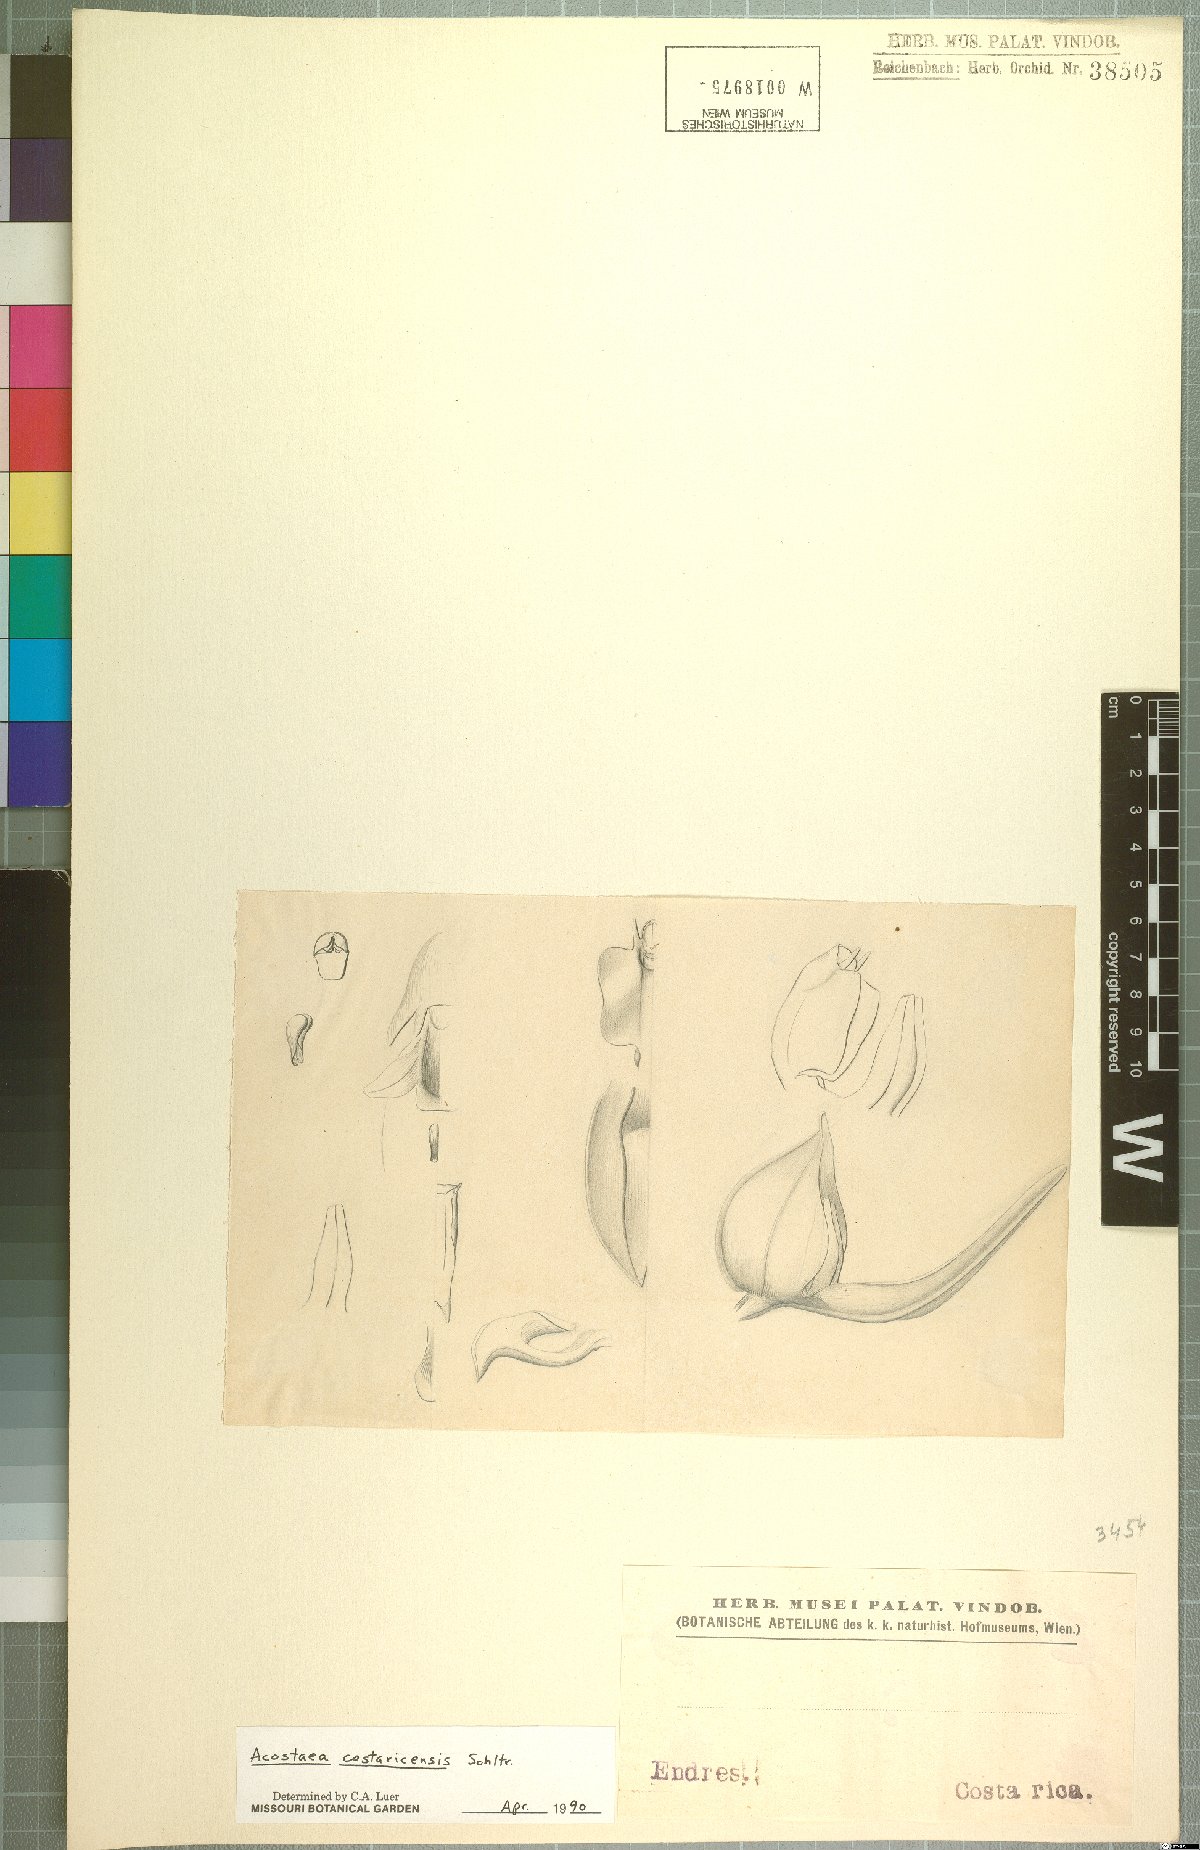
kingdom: Plantae
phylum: Tracheophyta
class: Liliopsida
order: Asparagales
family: Orchidaceae
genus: Specklinia
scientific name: Specklinia colombiana
